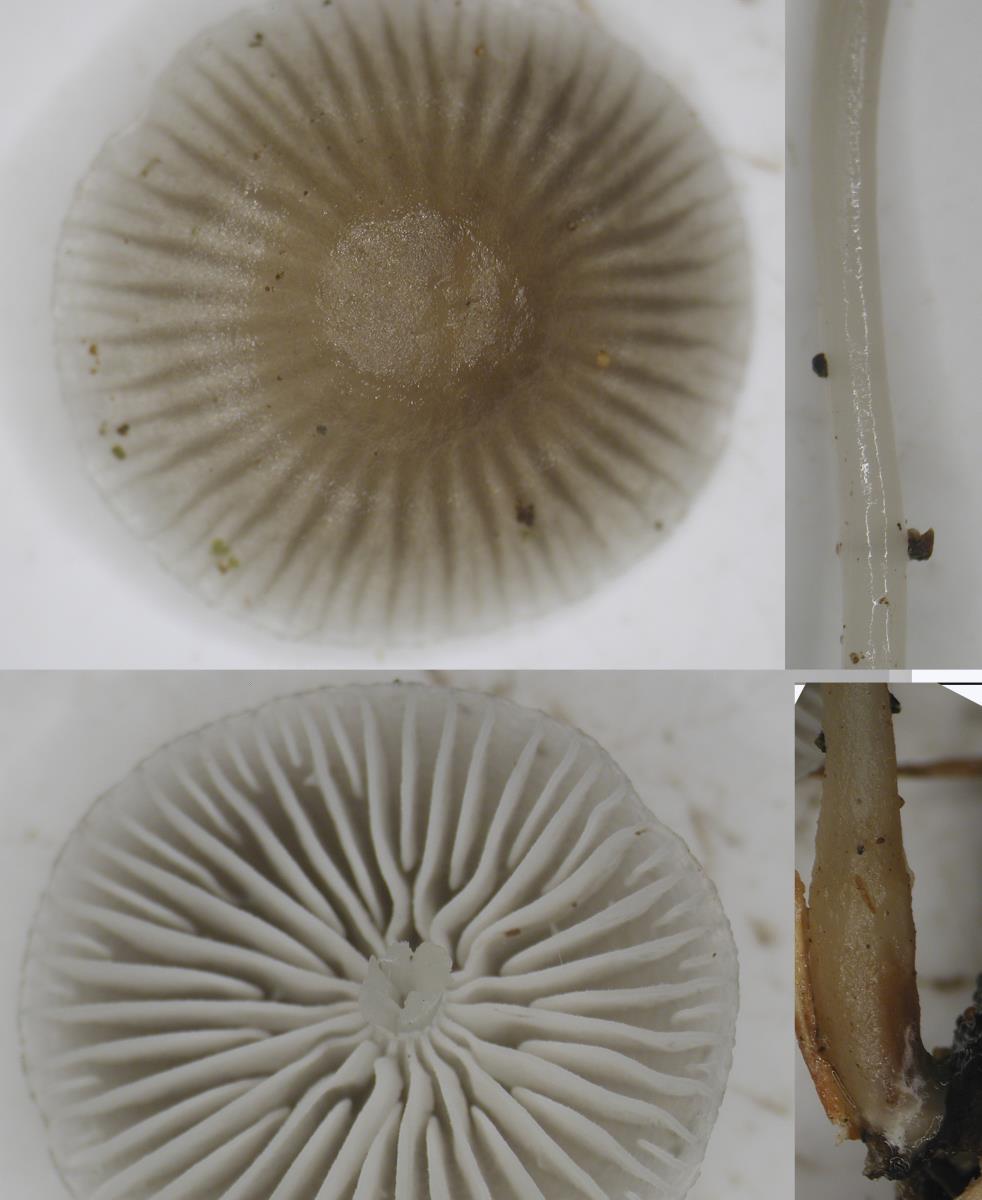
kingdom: Fungi
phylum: Basidiomycota
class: Agaricomycetes
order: Agaricales
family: Mycenaceae
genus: Mycena
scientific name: Mycena
